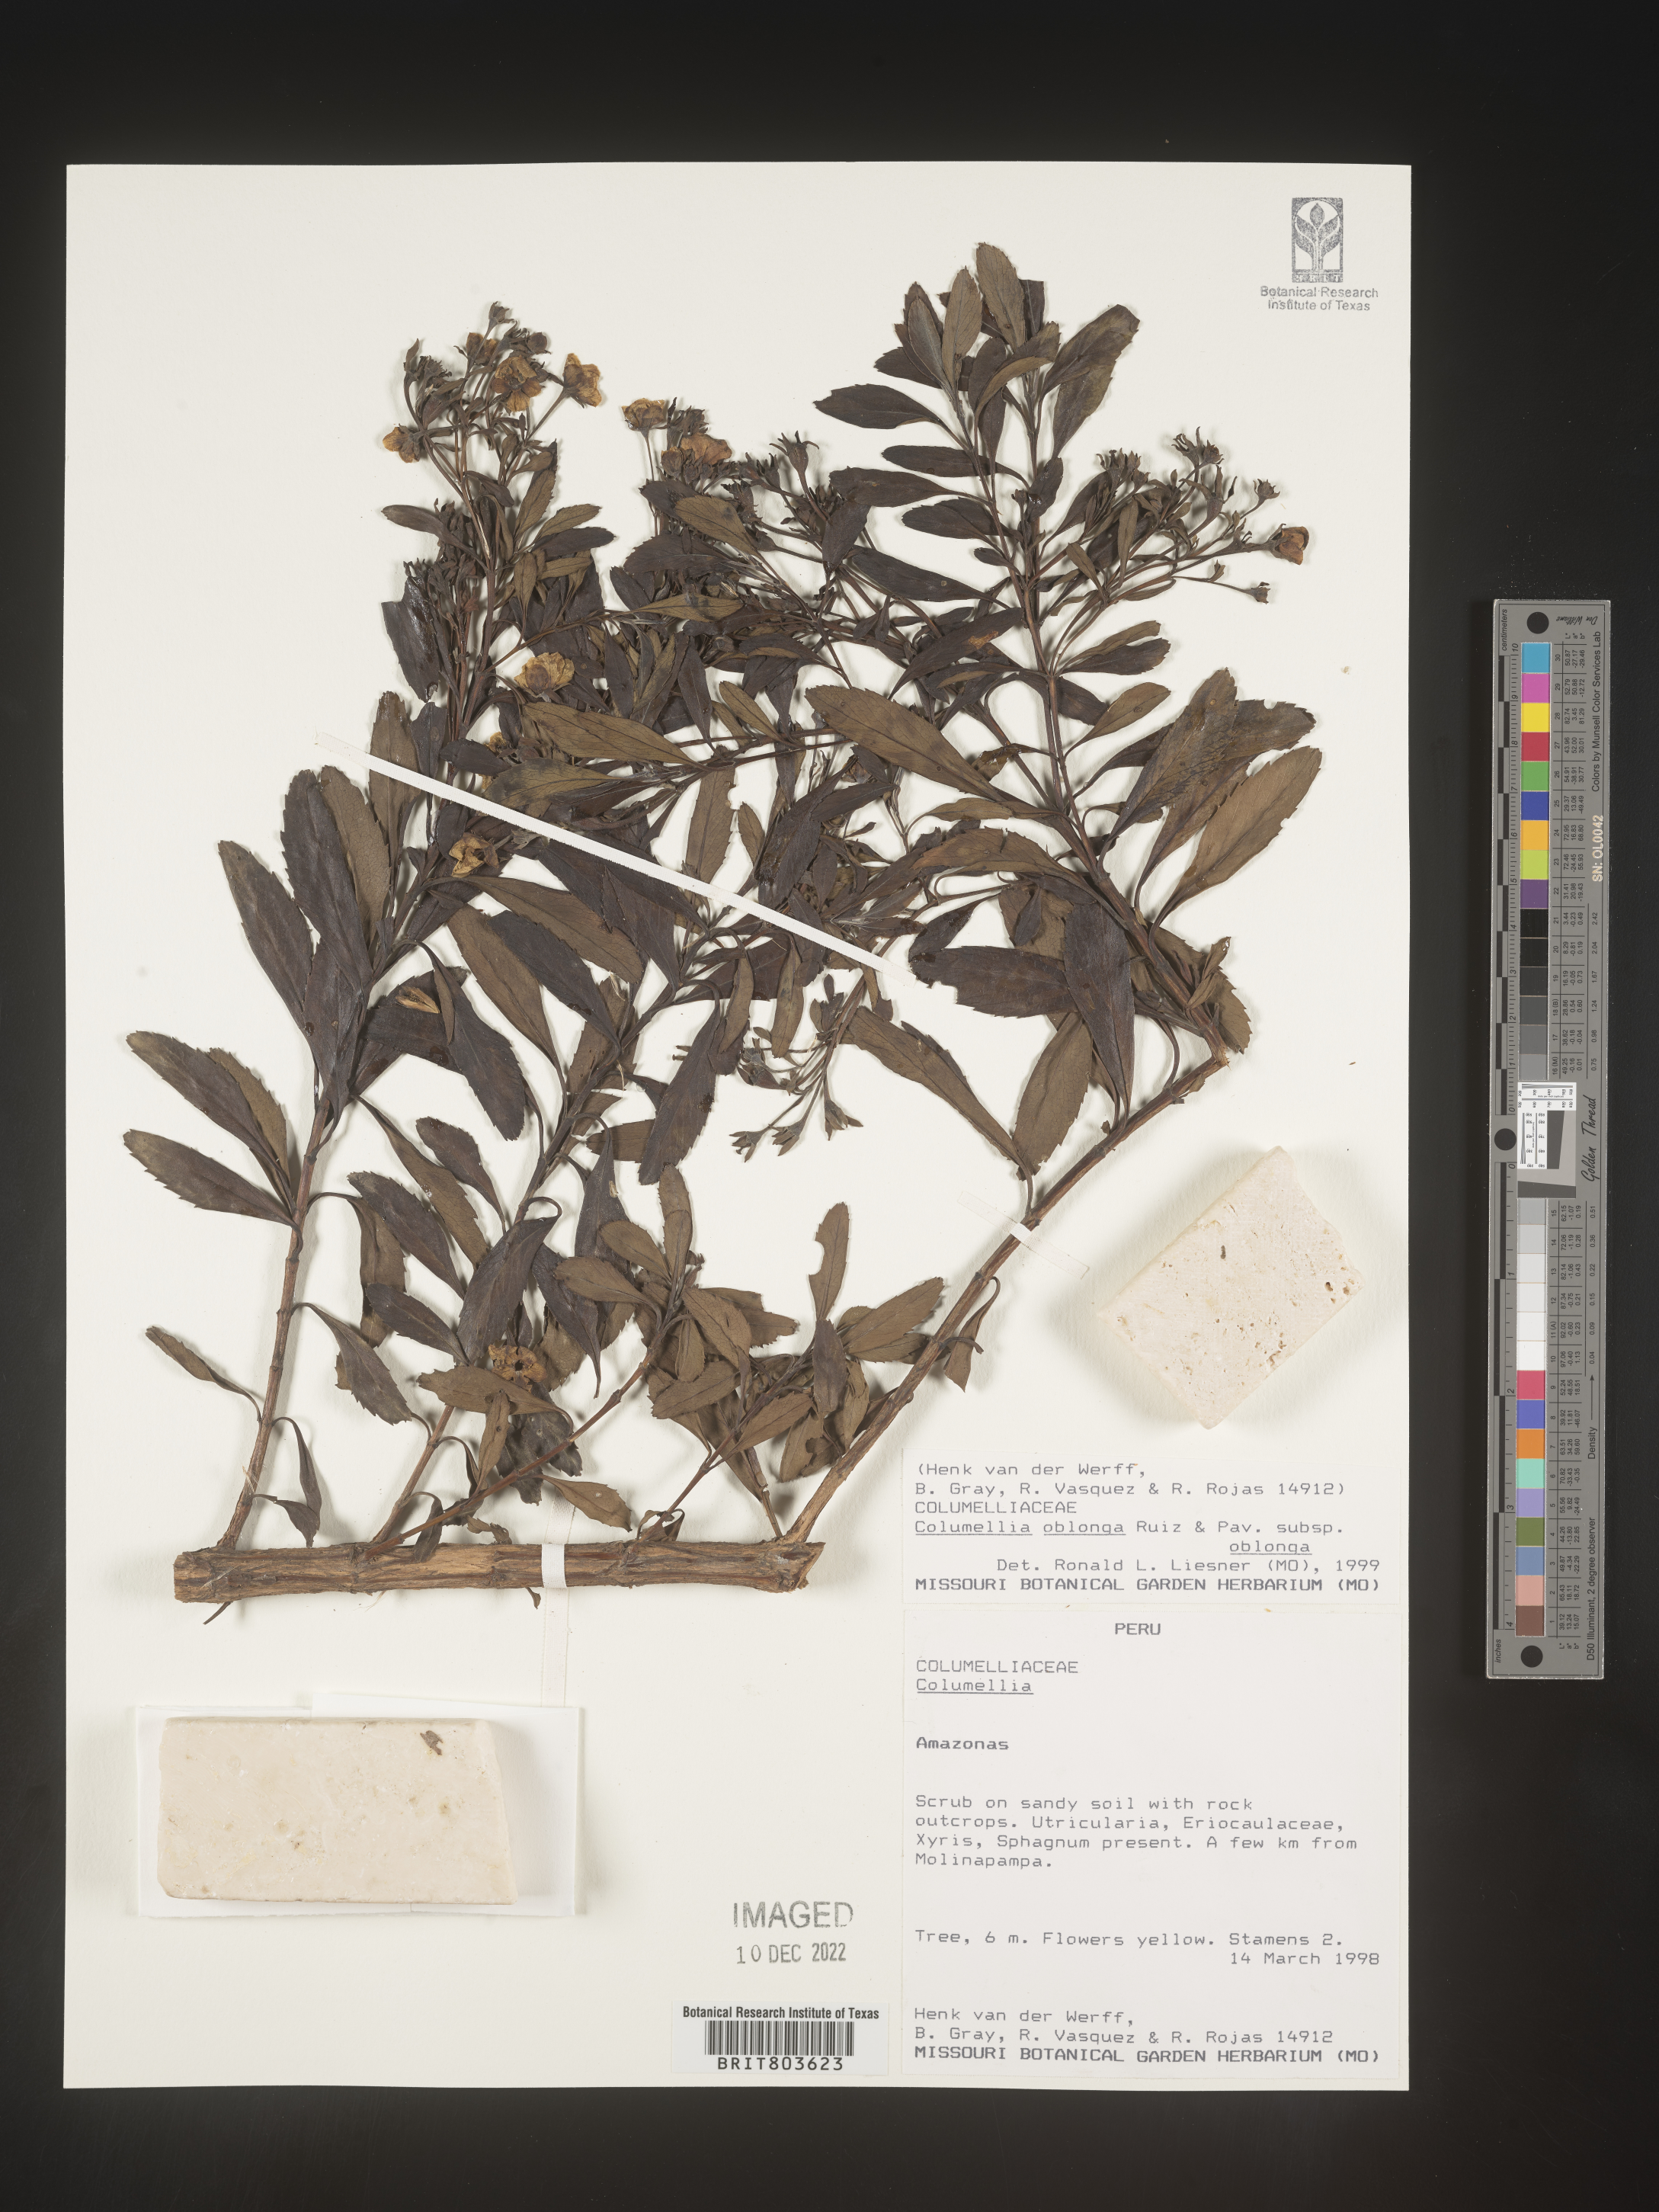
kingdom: Plantae
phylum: Tracheophyta
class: Magnoliopsida
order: Bruniales
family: Columelliaceae
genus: Columellia
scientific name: Columellia
